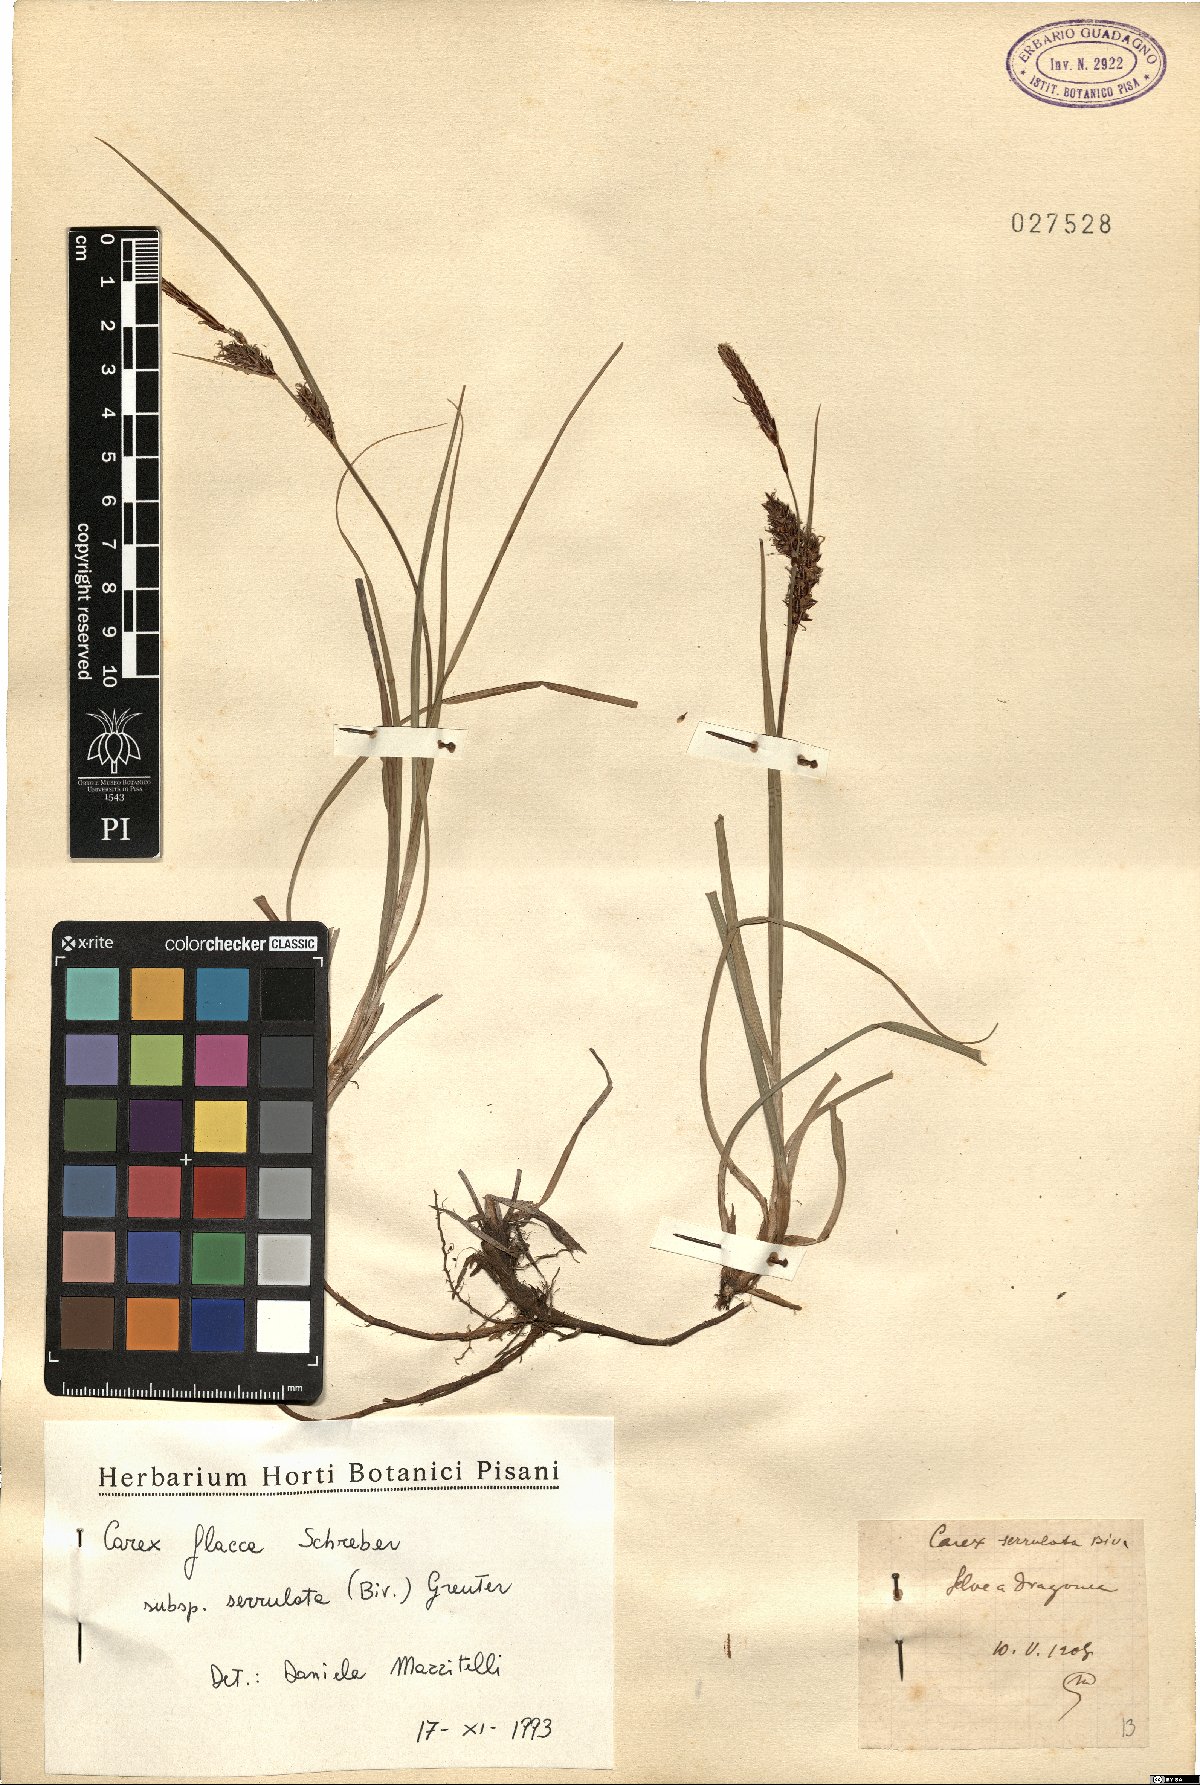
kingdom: Plantae
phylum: Tracheophyta
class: Liliopsida
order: Poales
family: Cyperaceae
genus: Carex
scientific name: Carex flacca
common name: Glaucous sedge
